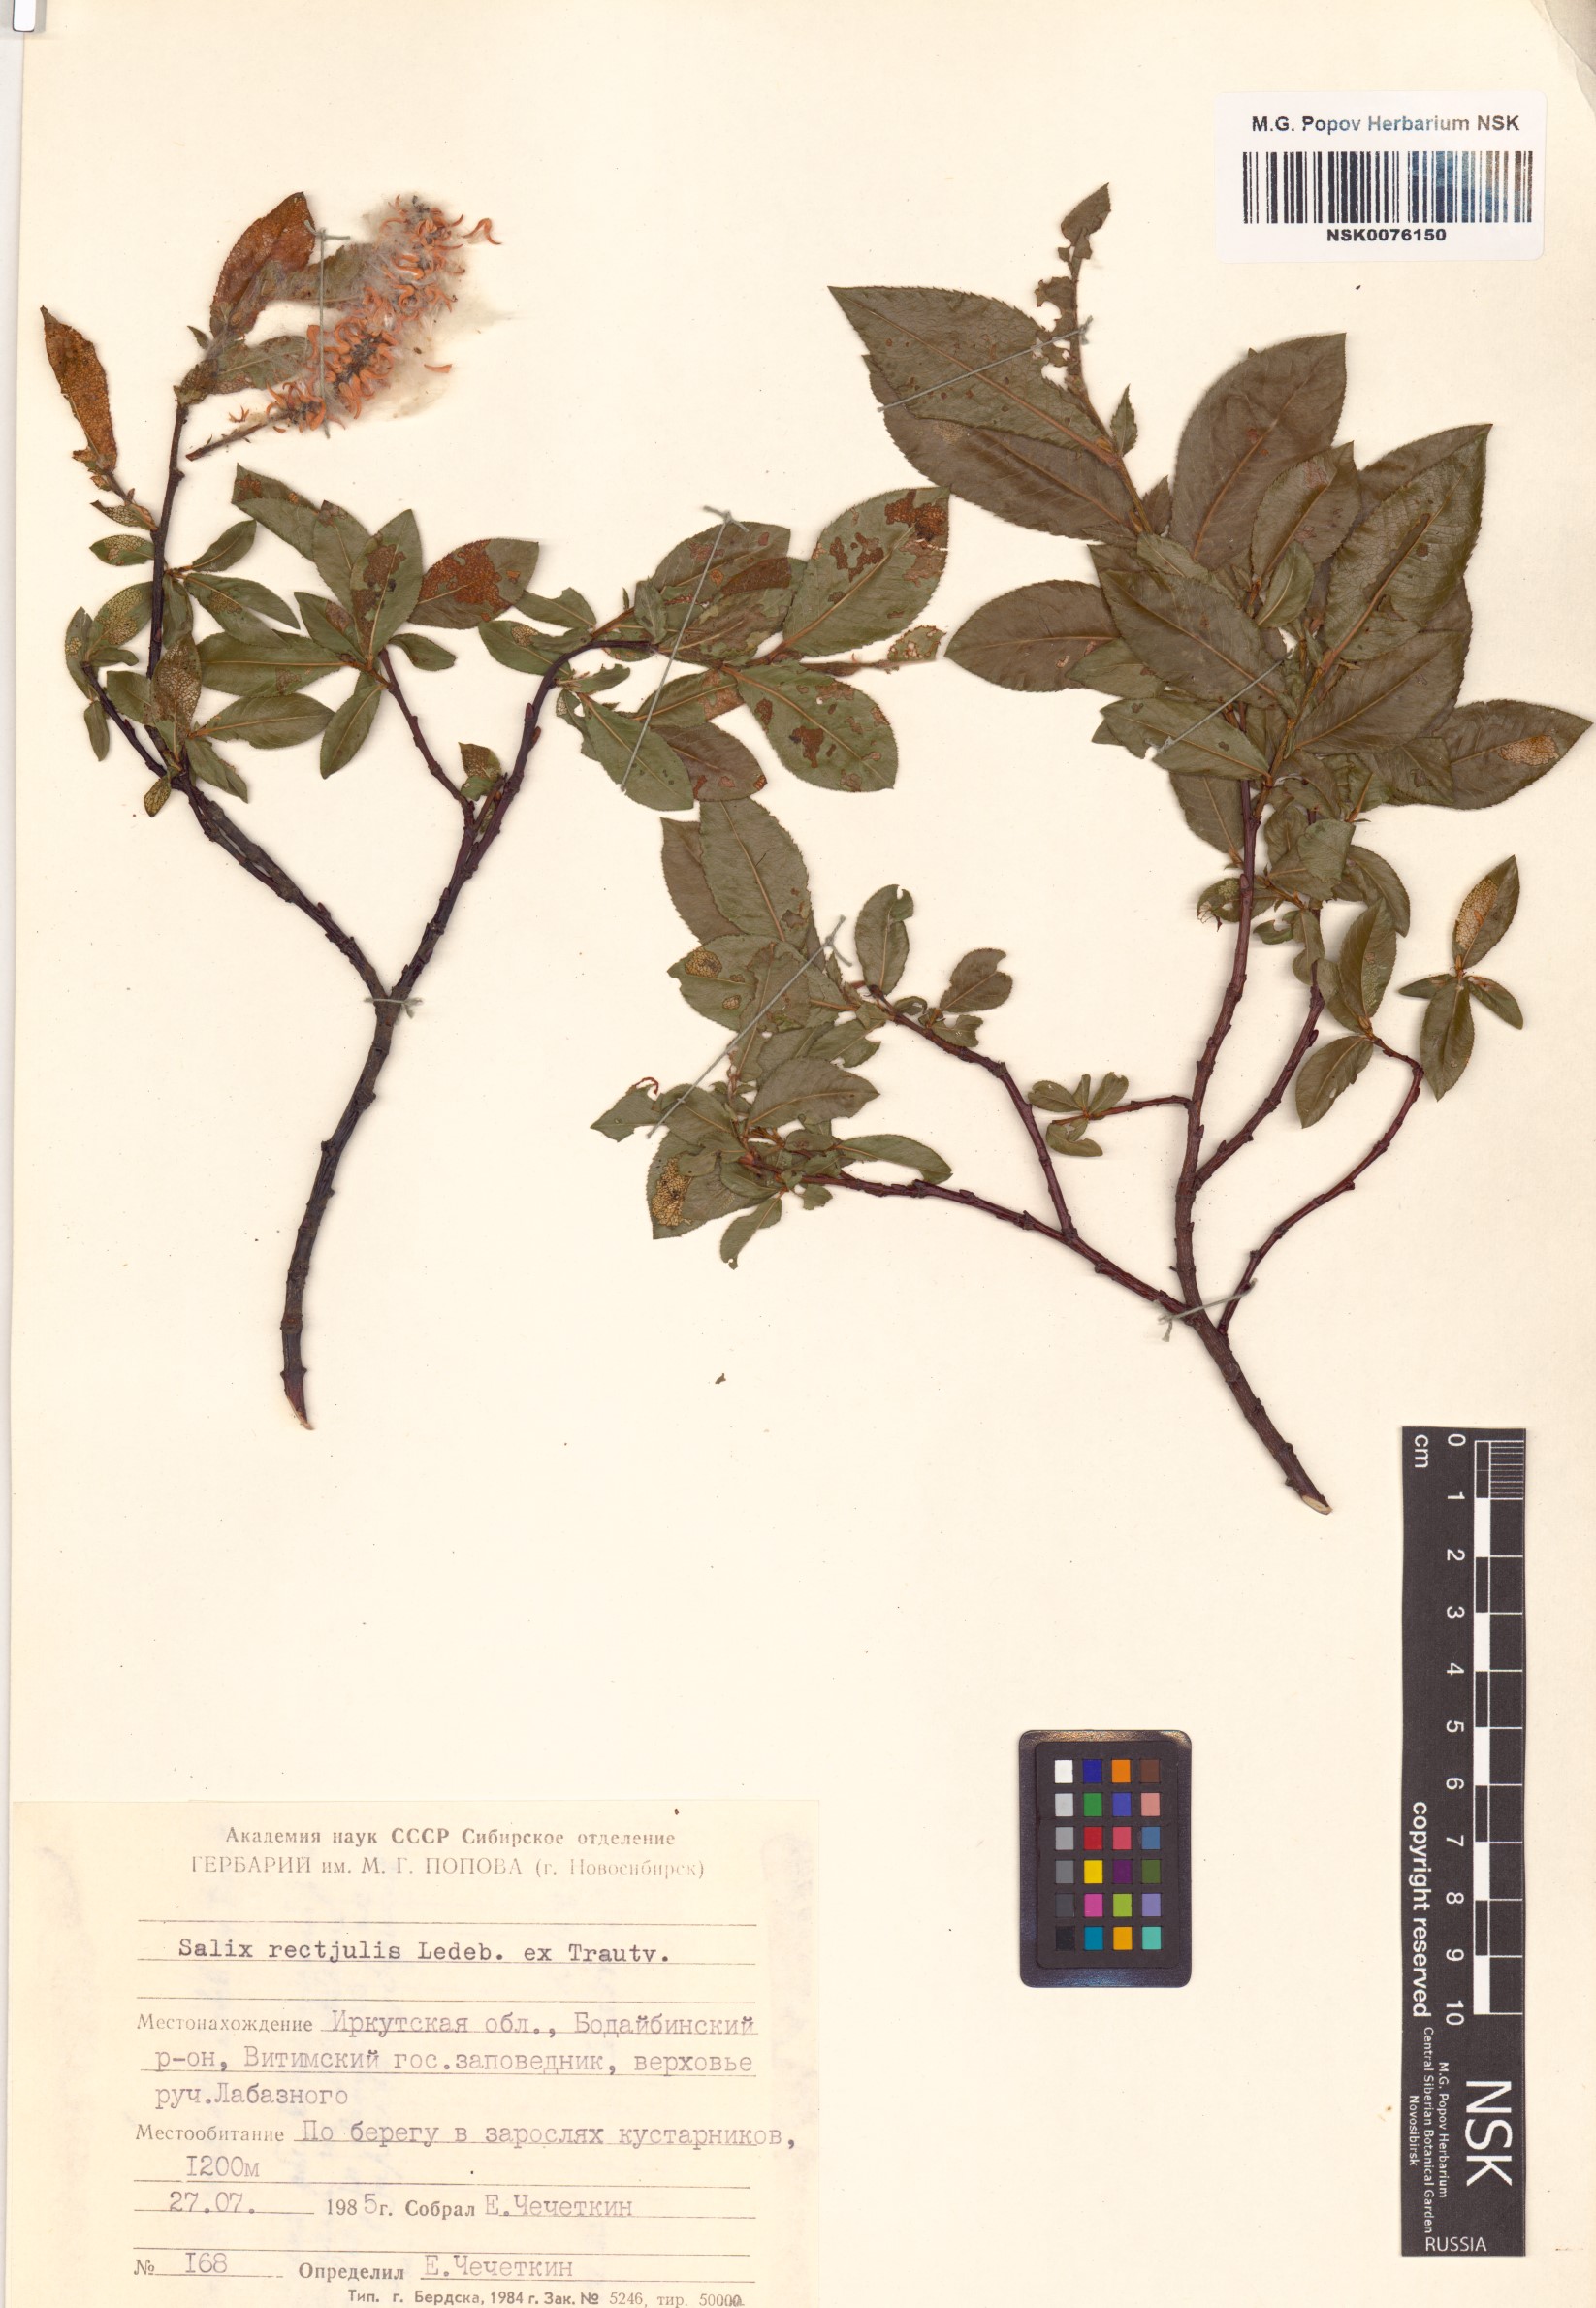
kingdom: Plantae
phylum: Tracheophyta
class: Magnoliopsida
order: Malpighiales
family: Salicaceae
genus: Salix
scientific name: Salix rectijulis
